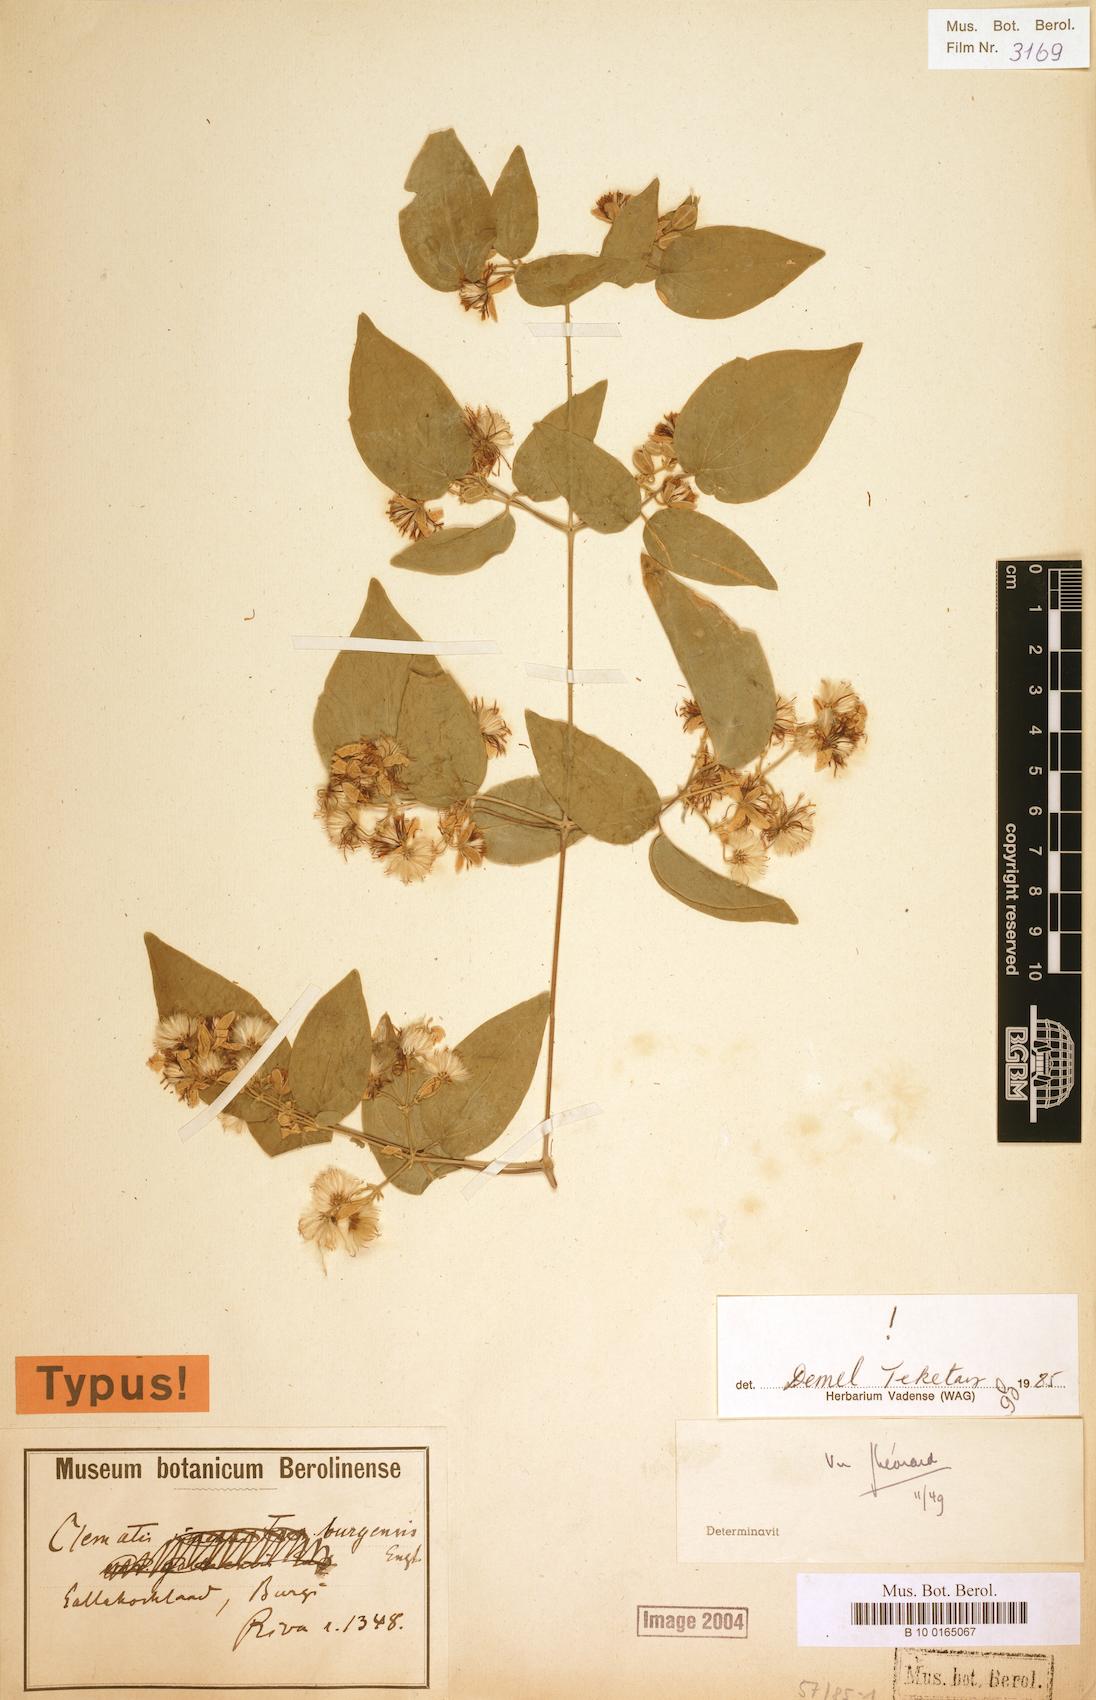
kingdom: Plantae
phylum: Tracheophyta
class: Magnoliopsida
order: Ranunculales
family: Ranunculaceae
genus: Clematis
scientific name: Clematis hirsuta
